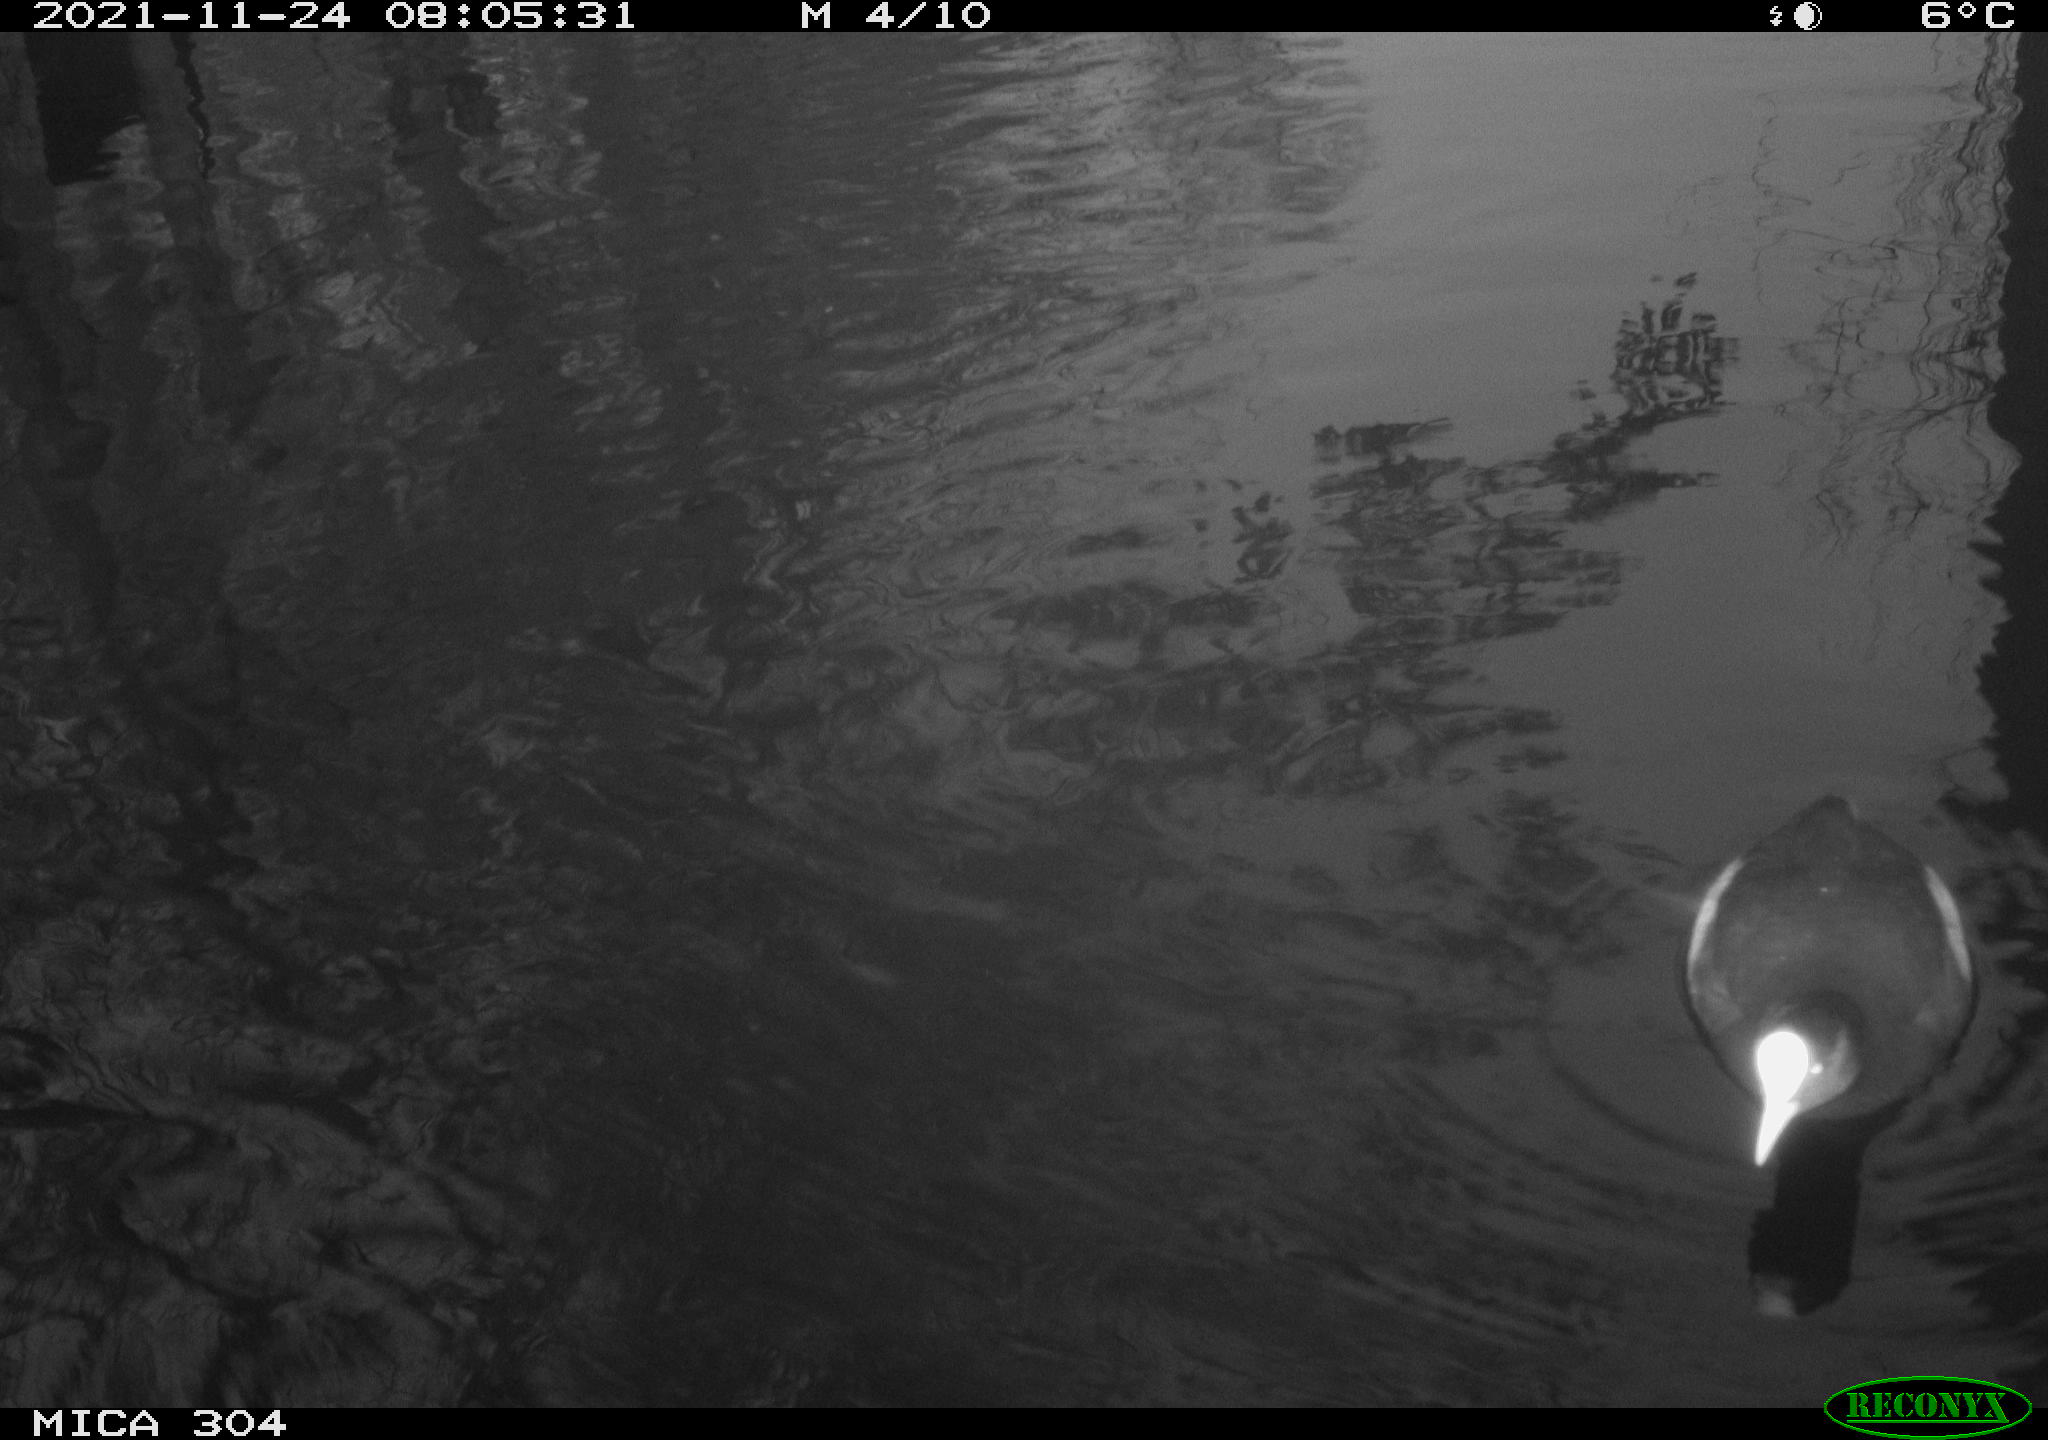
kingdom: Animalia
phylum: Chordata
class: Aves
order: Gruiformes
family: Rallidae
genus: Fulica
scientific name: Fulica atra
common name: Eurasian coot
